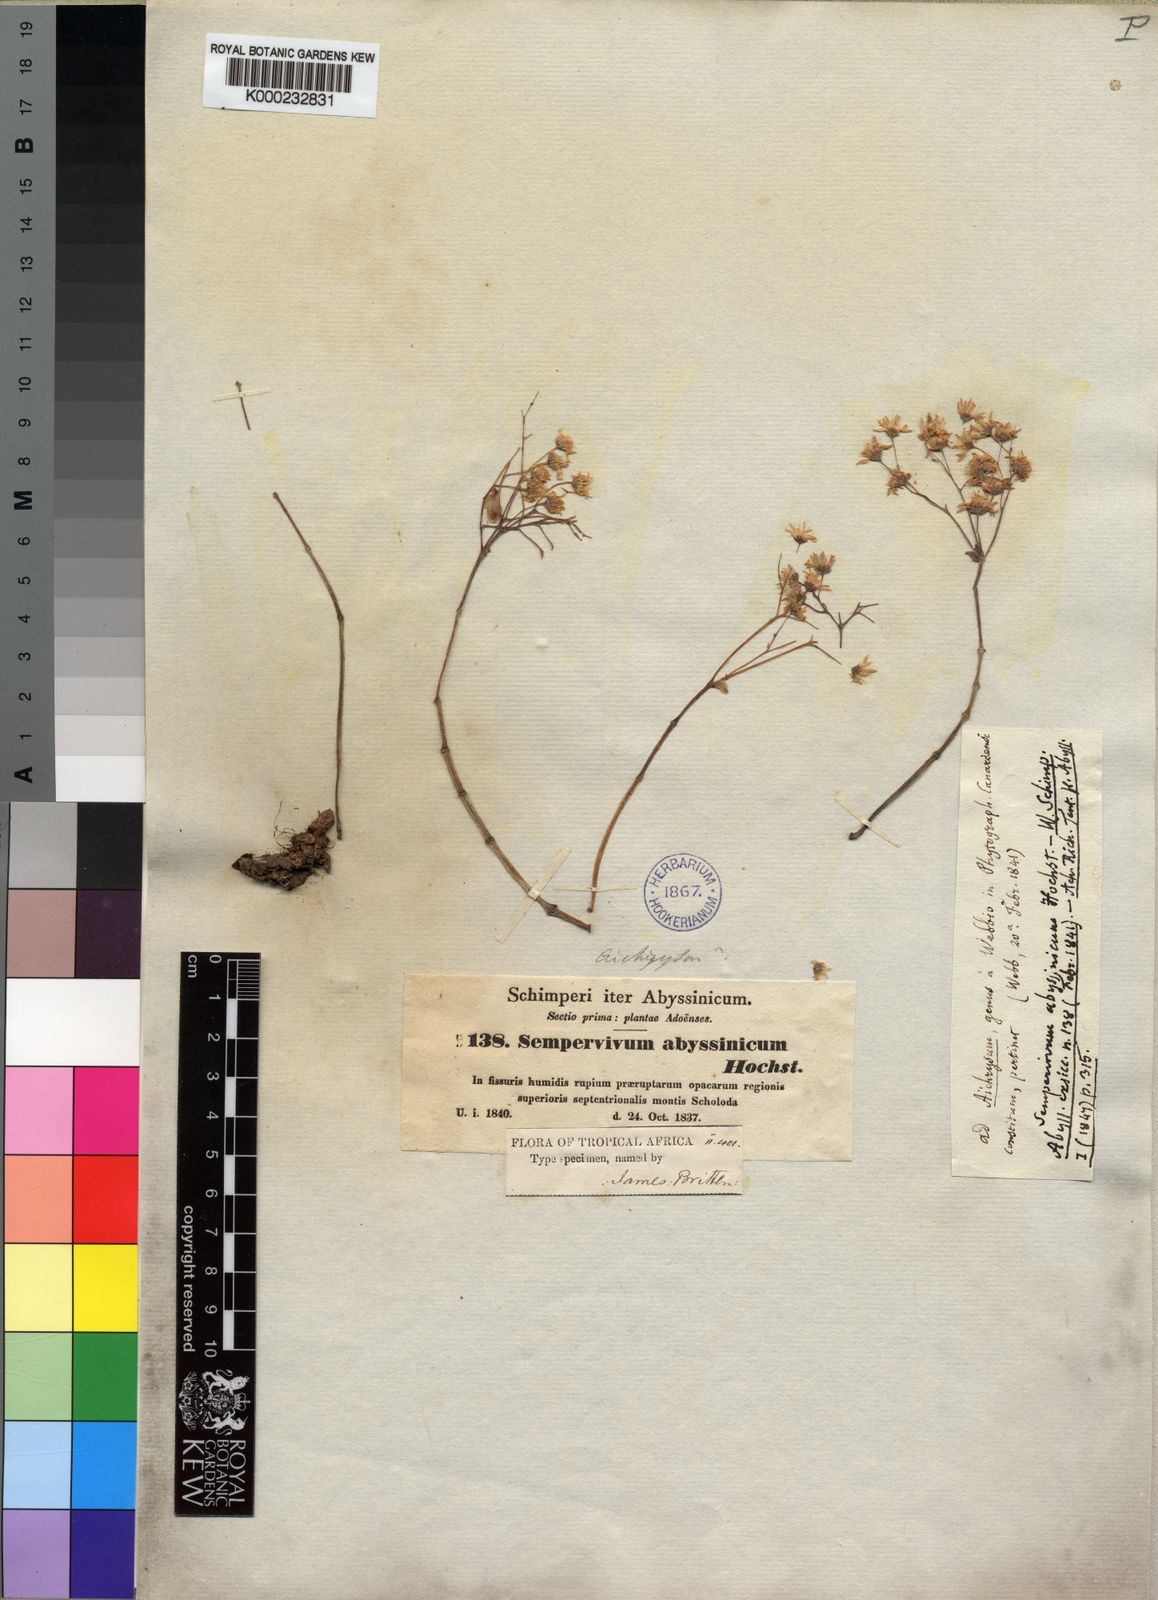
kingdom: Plantae
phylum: Tracheophyta
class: Magnoliopsida
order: Saxifragales
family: Crassulaceae
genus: Hypagophytum
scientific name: Hypagophytum abyssinicum
